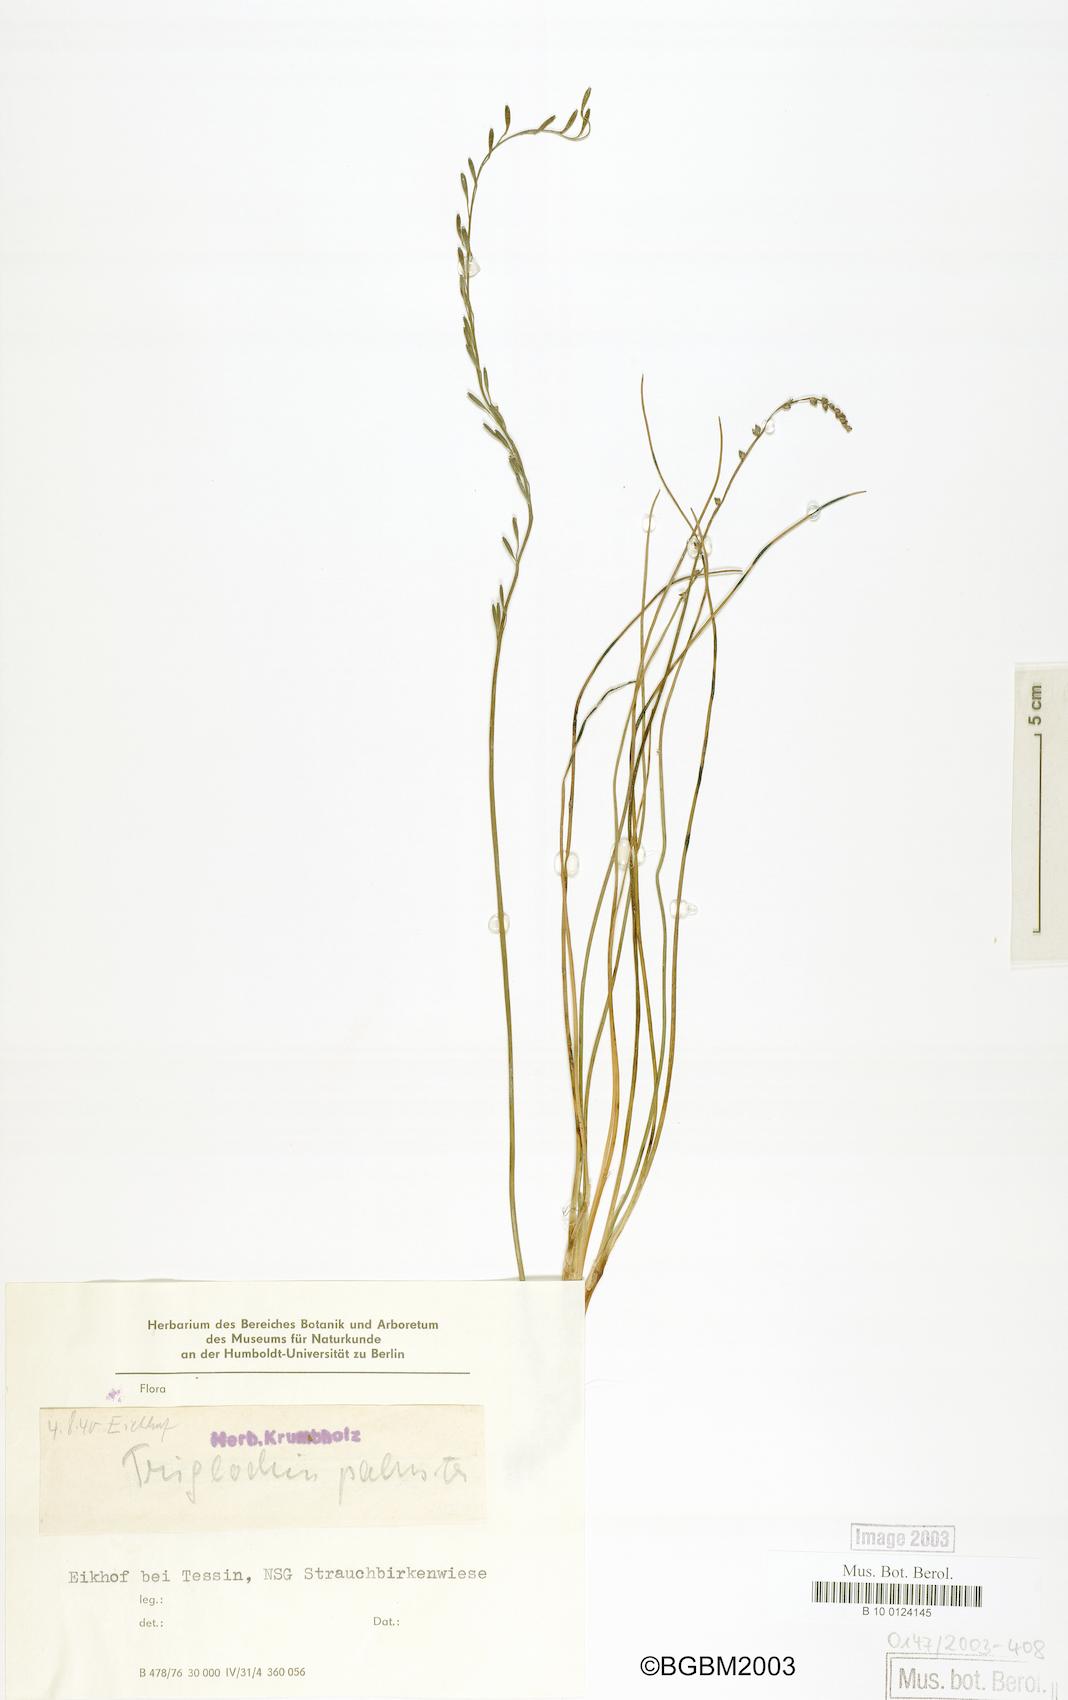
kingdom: Plantae
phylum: Tracheophyta
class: Liliopsida
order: Alismatales
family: Juncaginaceae
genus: Triglochin
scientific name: Triglochin palustris
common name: Marsh arrowgrass
